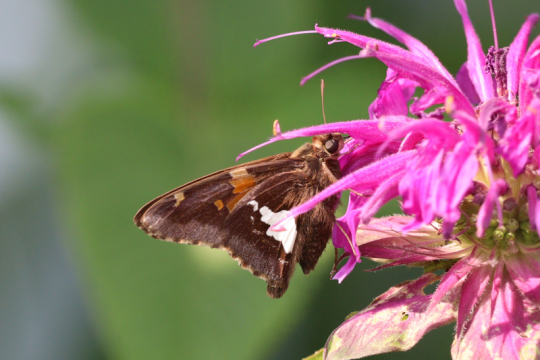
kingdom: Animalia
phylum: Arthropoda
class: Insecta
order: Lepidoptera
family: Hesperiidae
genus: Epargyreus
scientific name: Epargyreus clarus
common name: Silver-spotted Skipper
